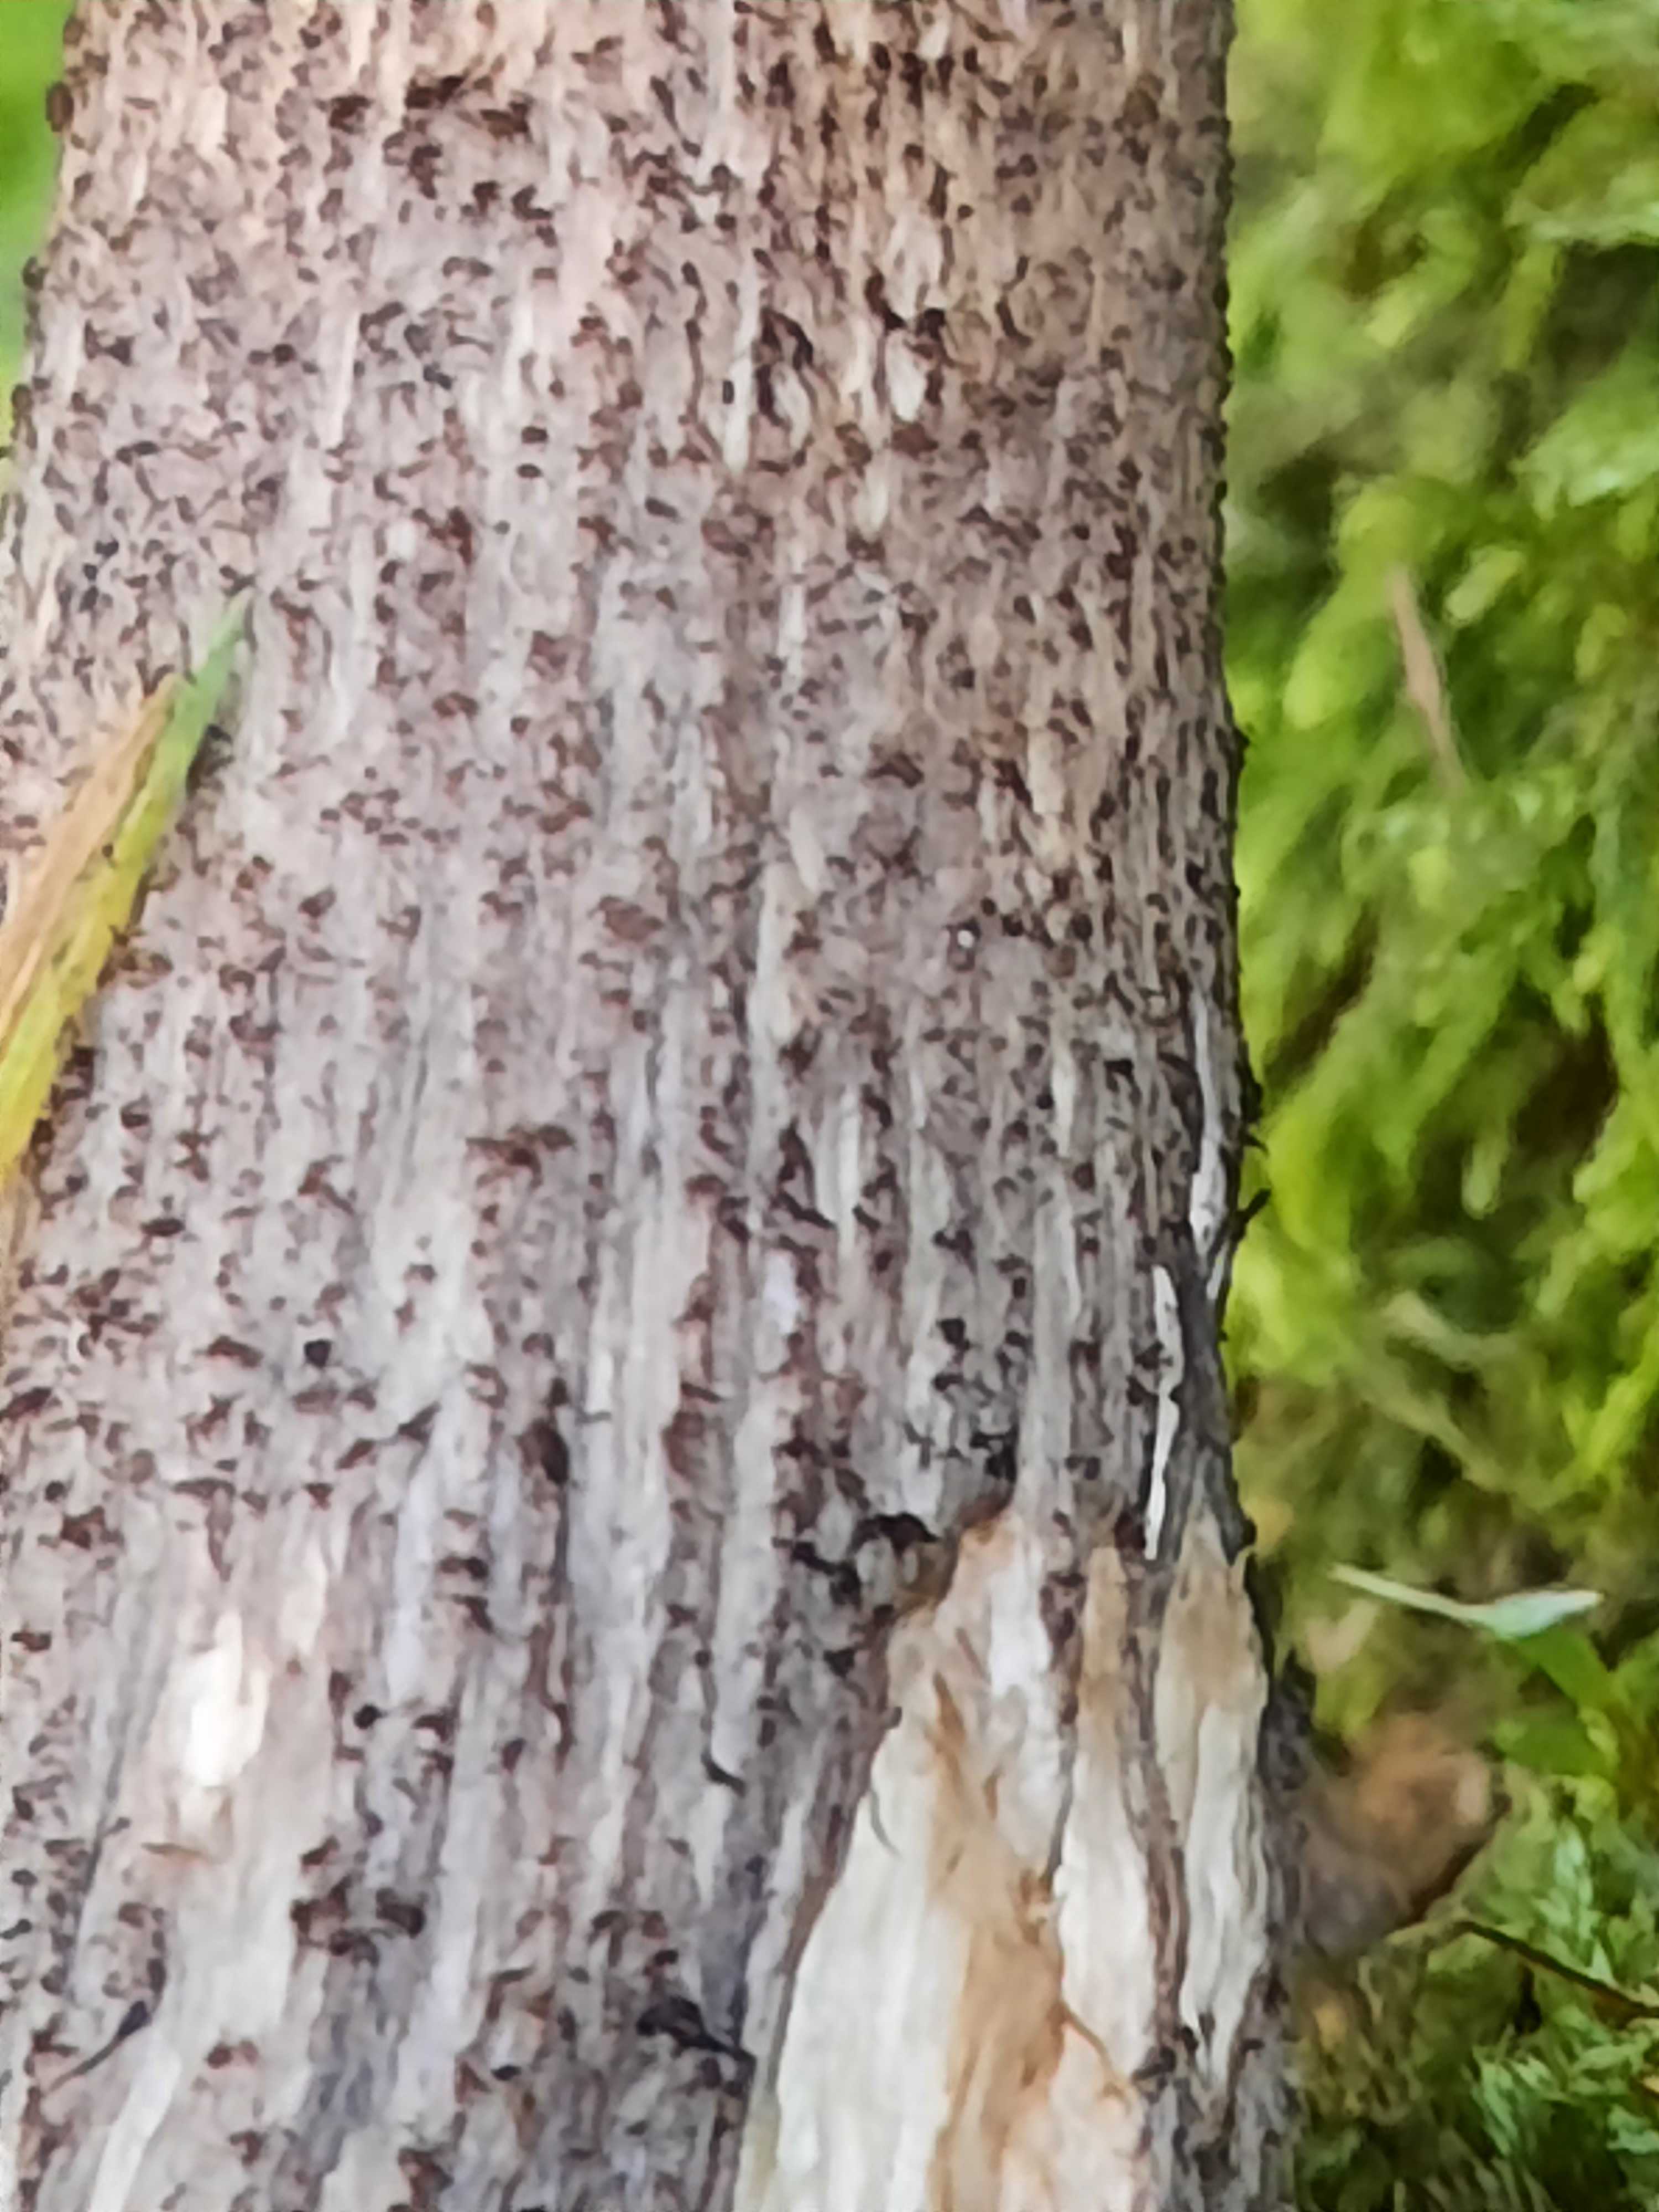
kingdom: Fungi
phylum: Basidiomycota
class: Agaricomycetes
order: Boletales
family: Boletaceae
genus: Leccinum
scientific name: Leccinum melaneum
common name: mørk skælrørhat
